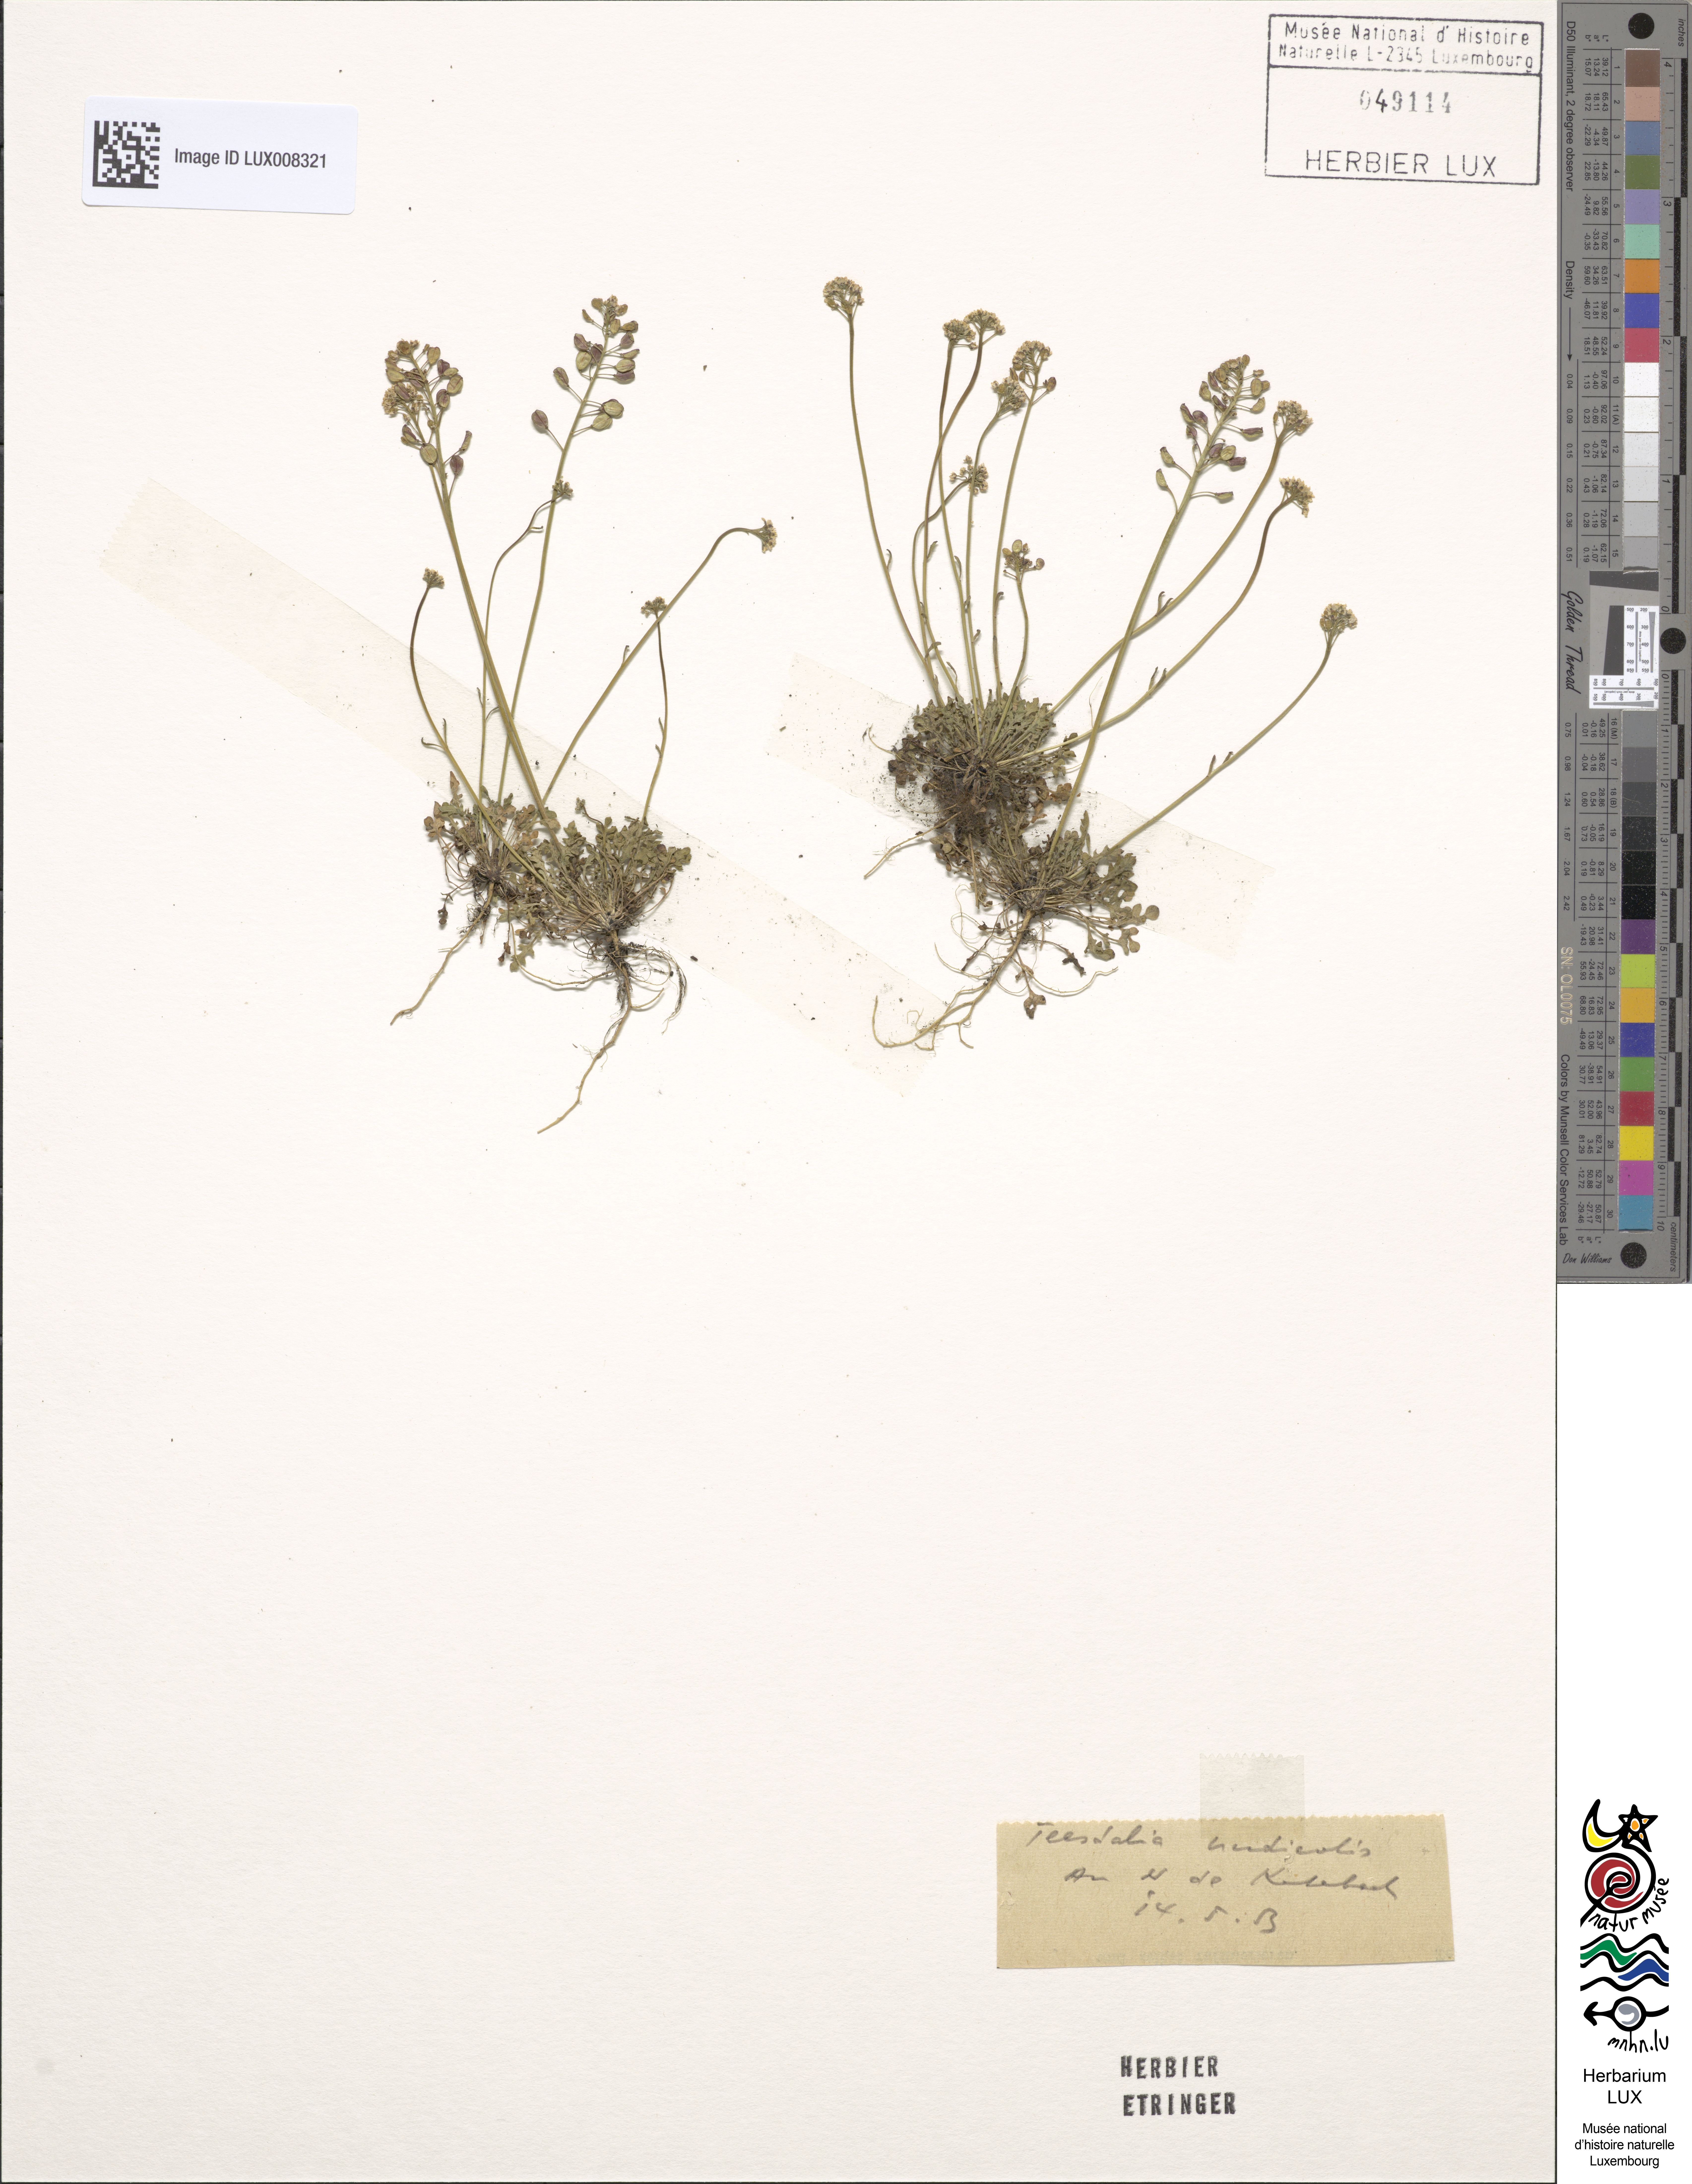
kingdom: Plantae
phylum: Tracheophyta
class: Magnoliopsida
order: Brassicales
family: Brassicaceae
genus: Teesdalia
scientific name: Teesdalia nudicaulis
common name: Shepherd's cress
